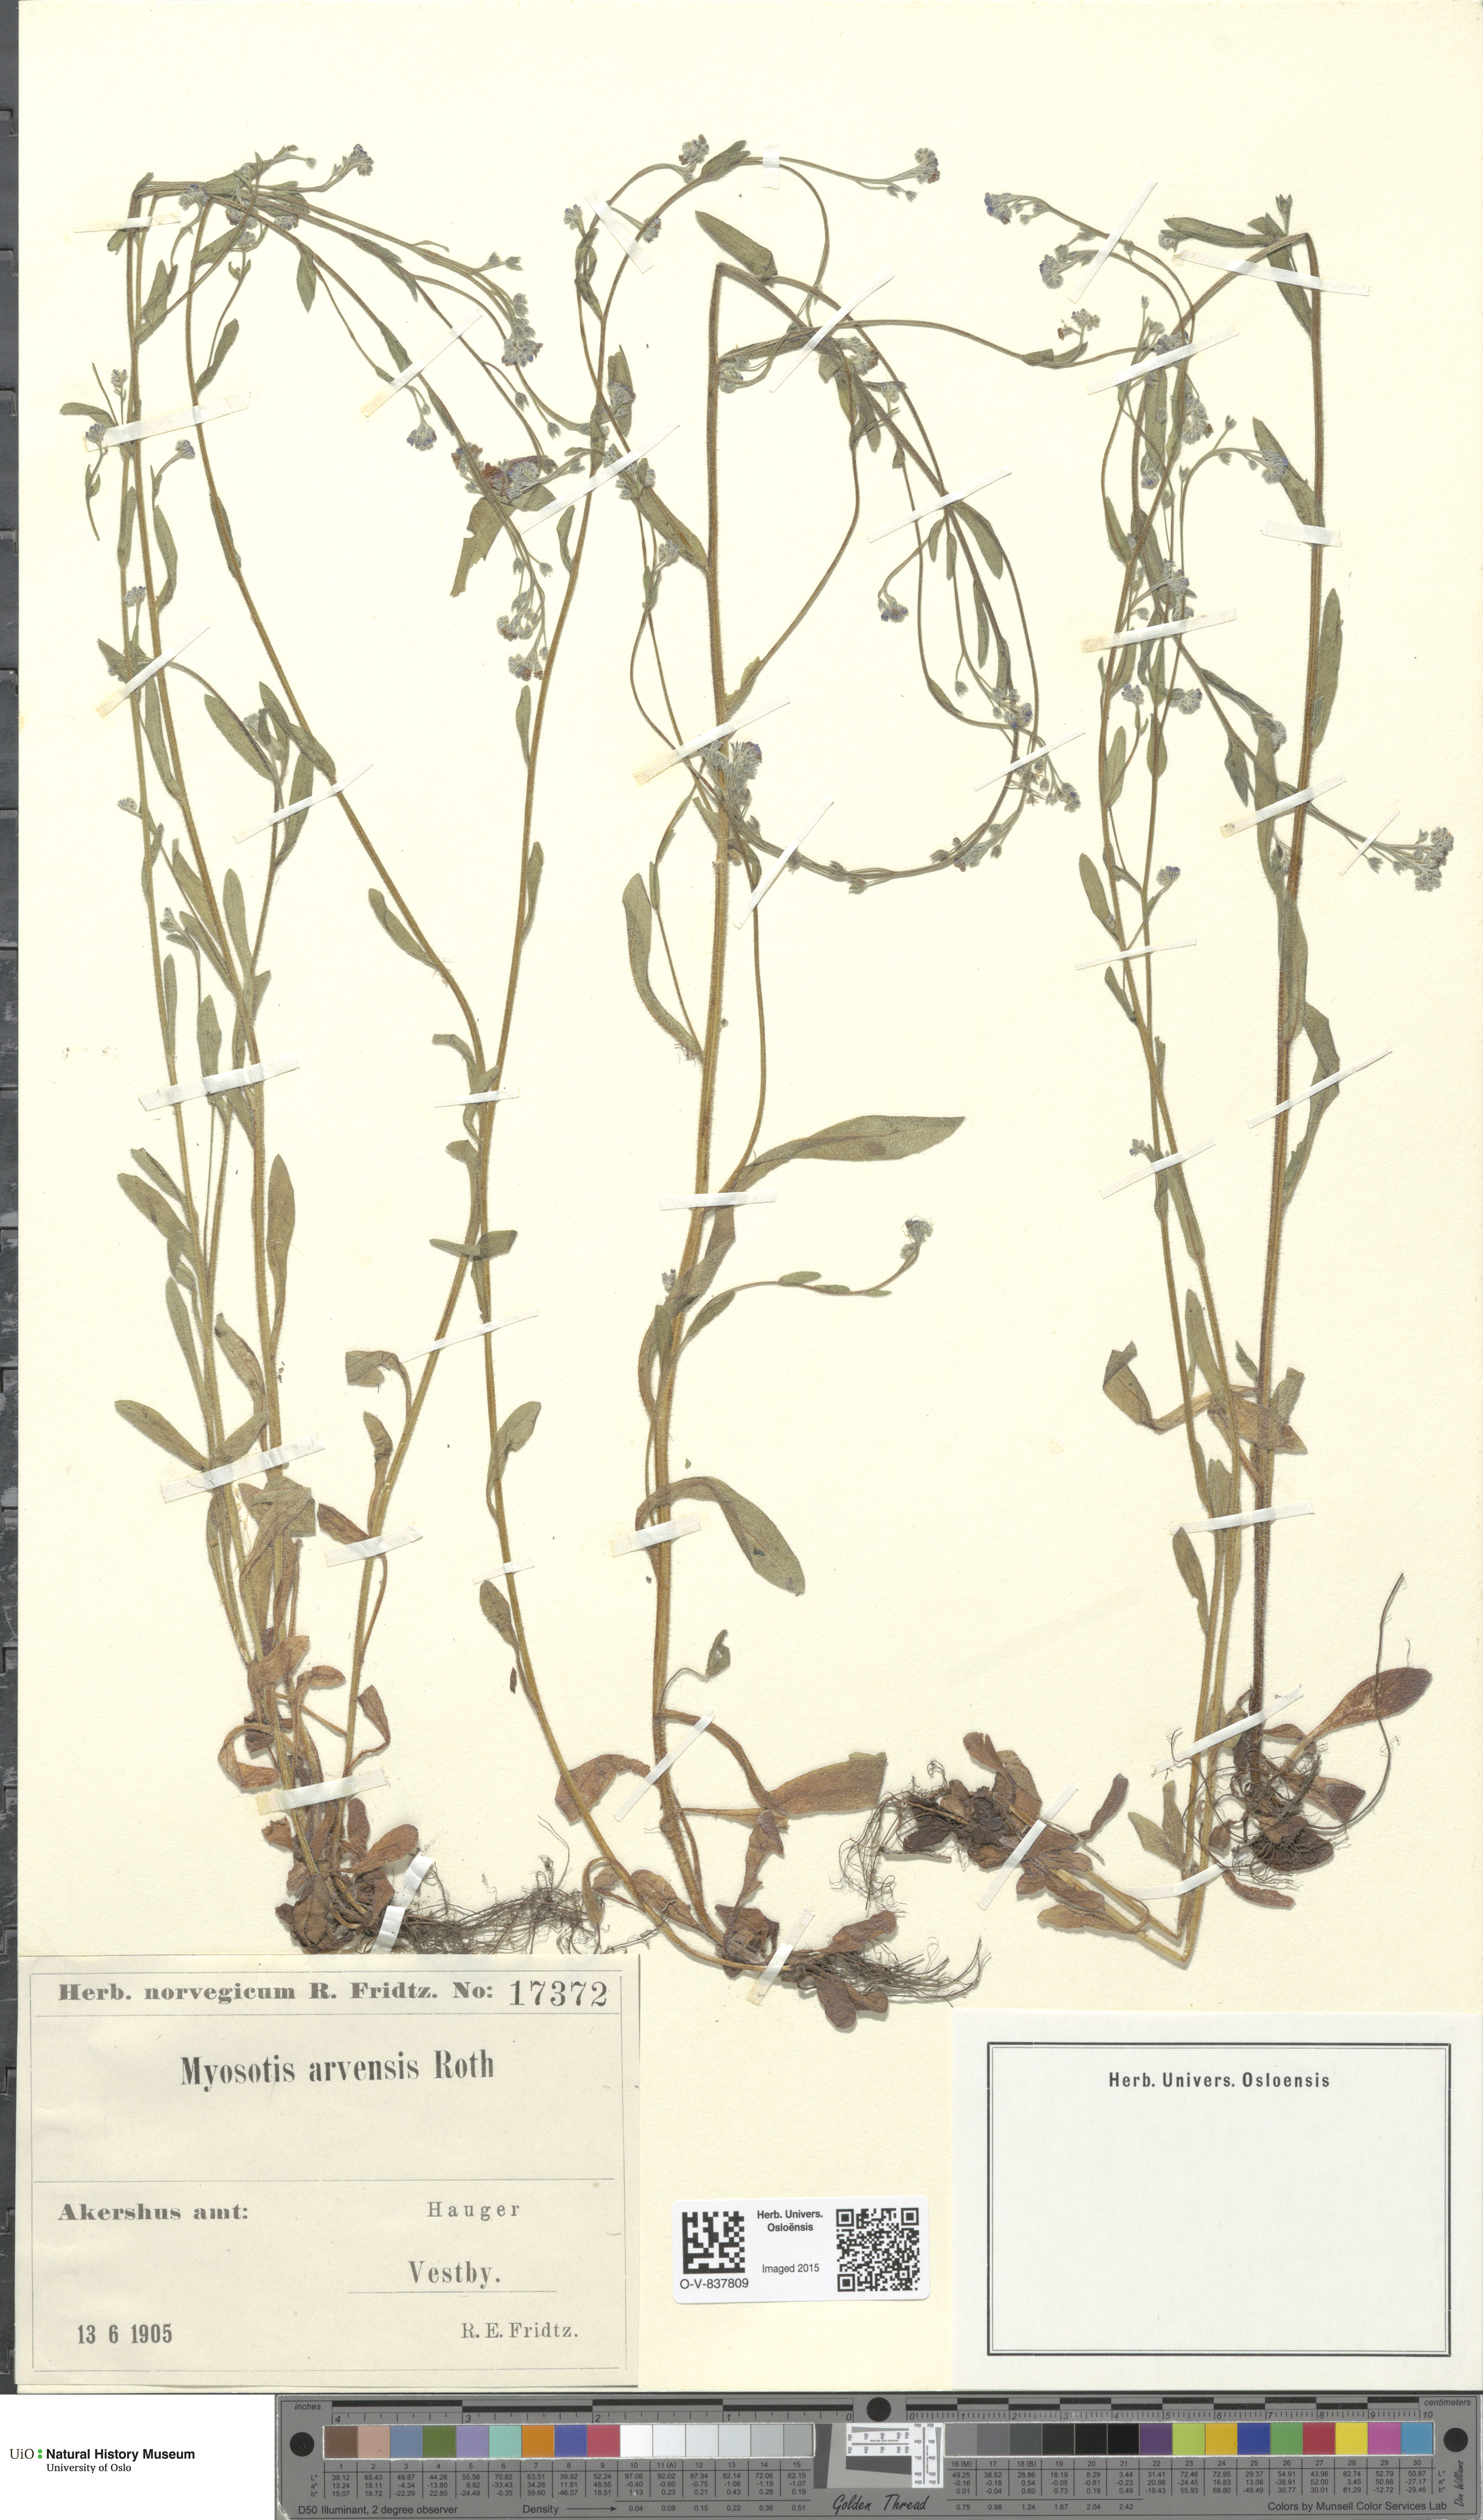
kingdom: Plantae
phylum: Tracheophyta
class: Magnoliopsida
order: Boraginales
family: Boraginaceae
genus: Myosotis
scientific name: Myosotis arvensis
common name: Field forget-me-not
